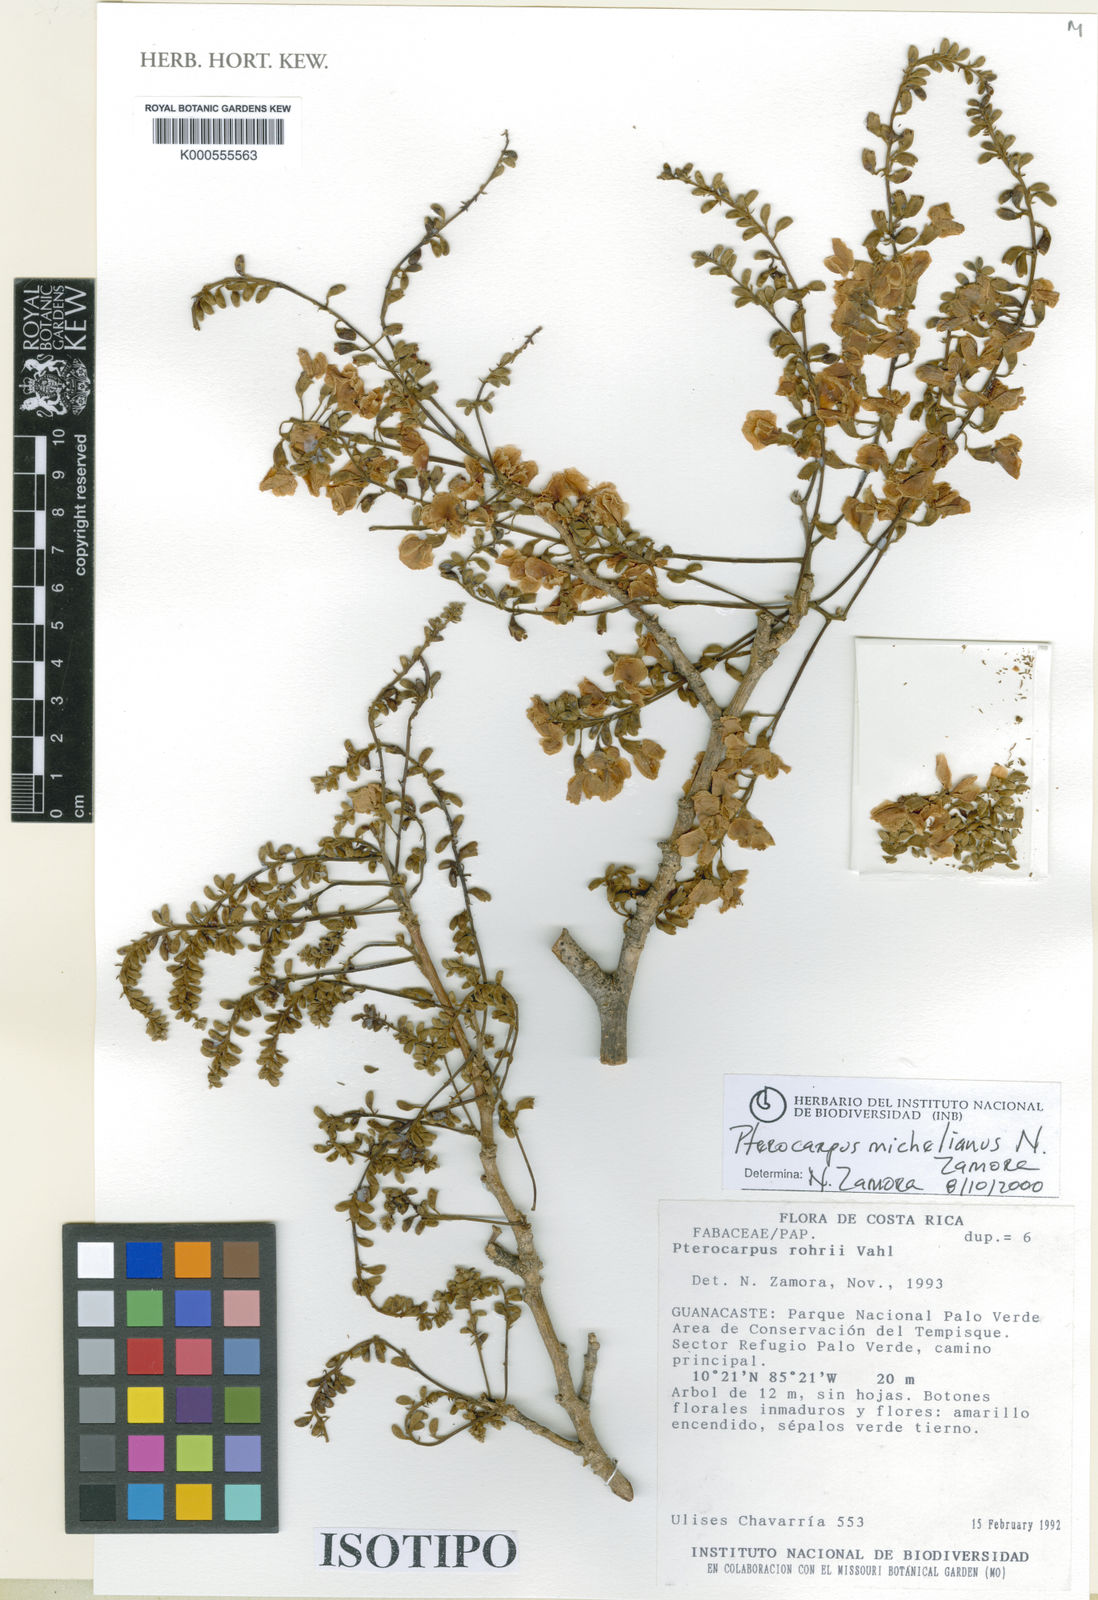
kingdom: Plantae
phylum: Tracheophyta
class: Magnoliopsida
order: Fabales
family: Fabaceae
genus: Pterocarpus
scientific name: Pterocarpus michelianus
